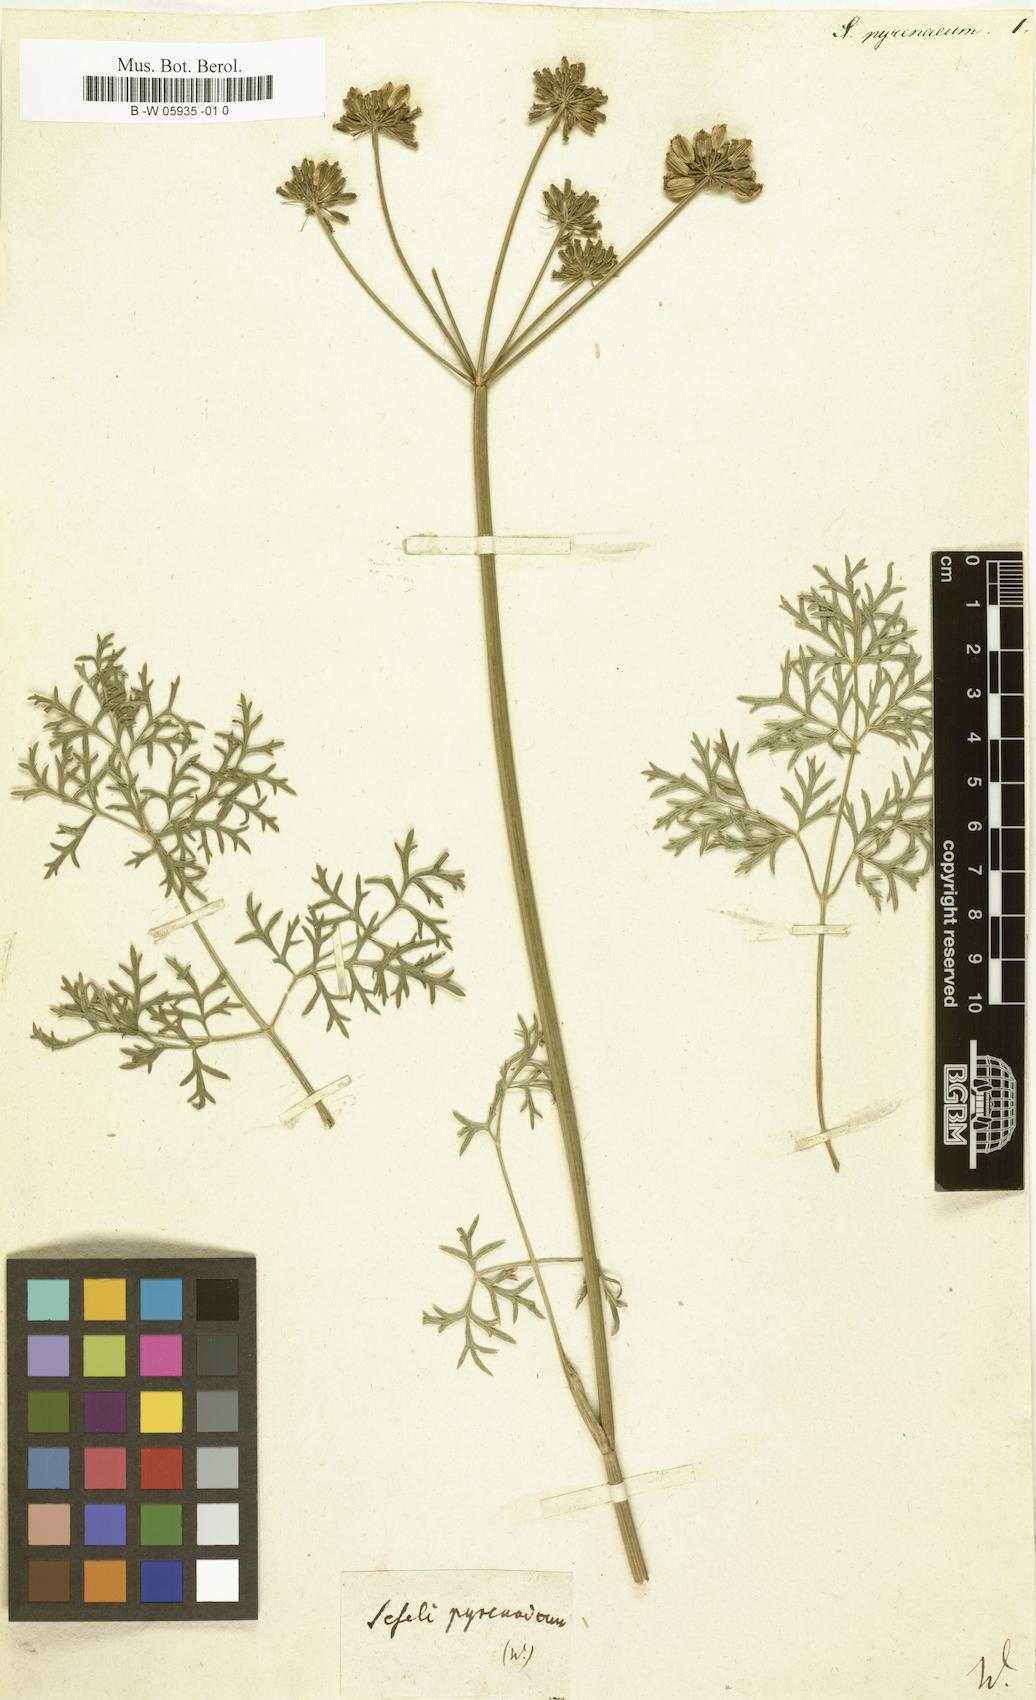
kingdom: Plantae
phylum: Tracheophyta
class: Magnoliopsida
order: Apiales
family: Apiaceae
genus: Epikeros
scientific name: Epikeros pyrenaeus
